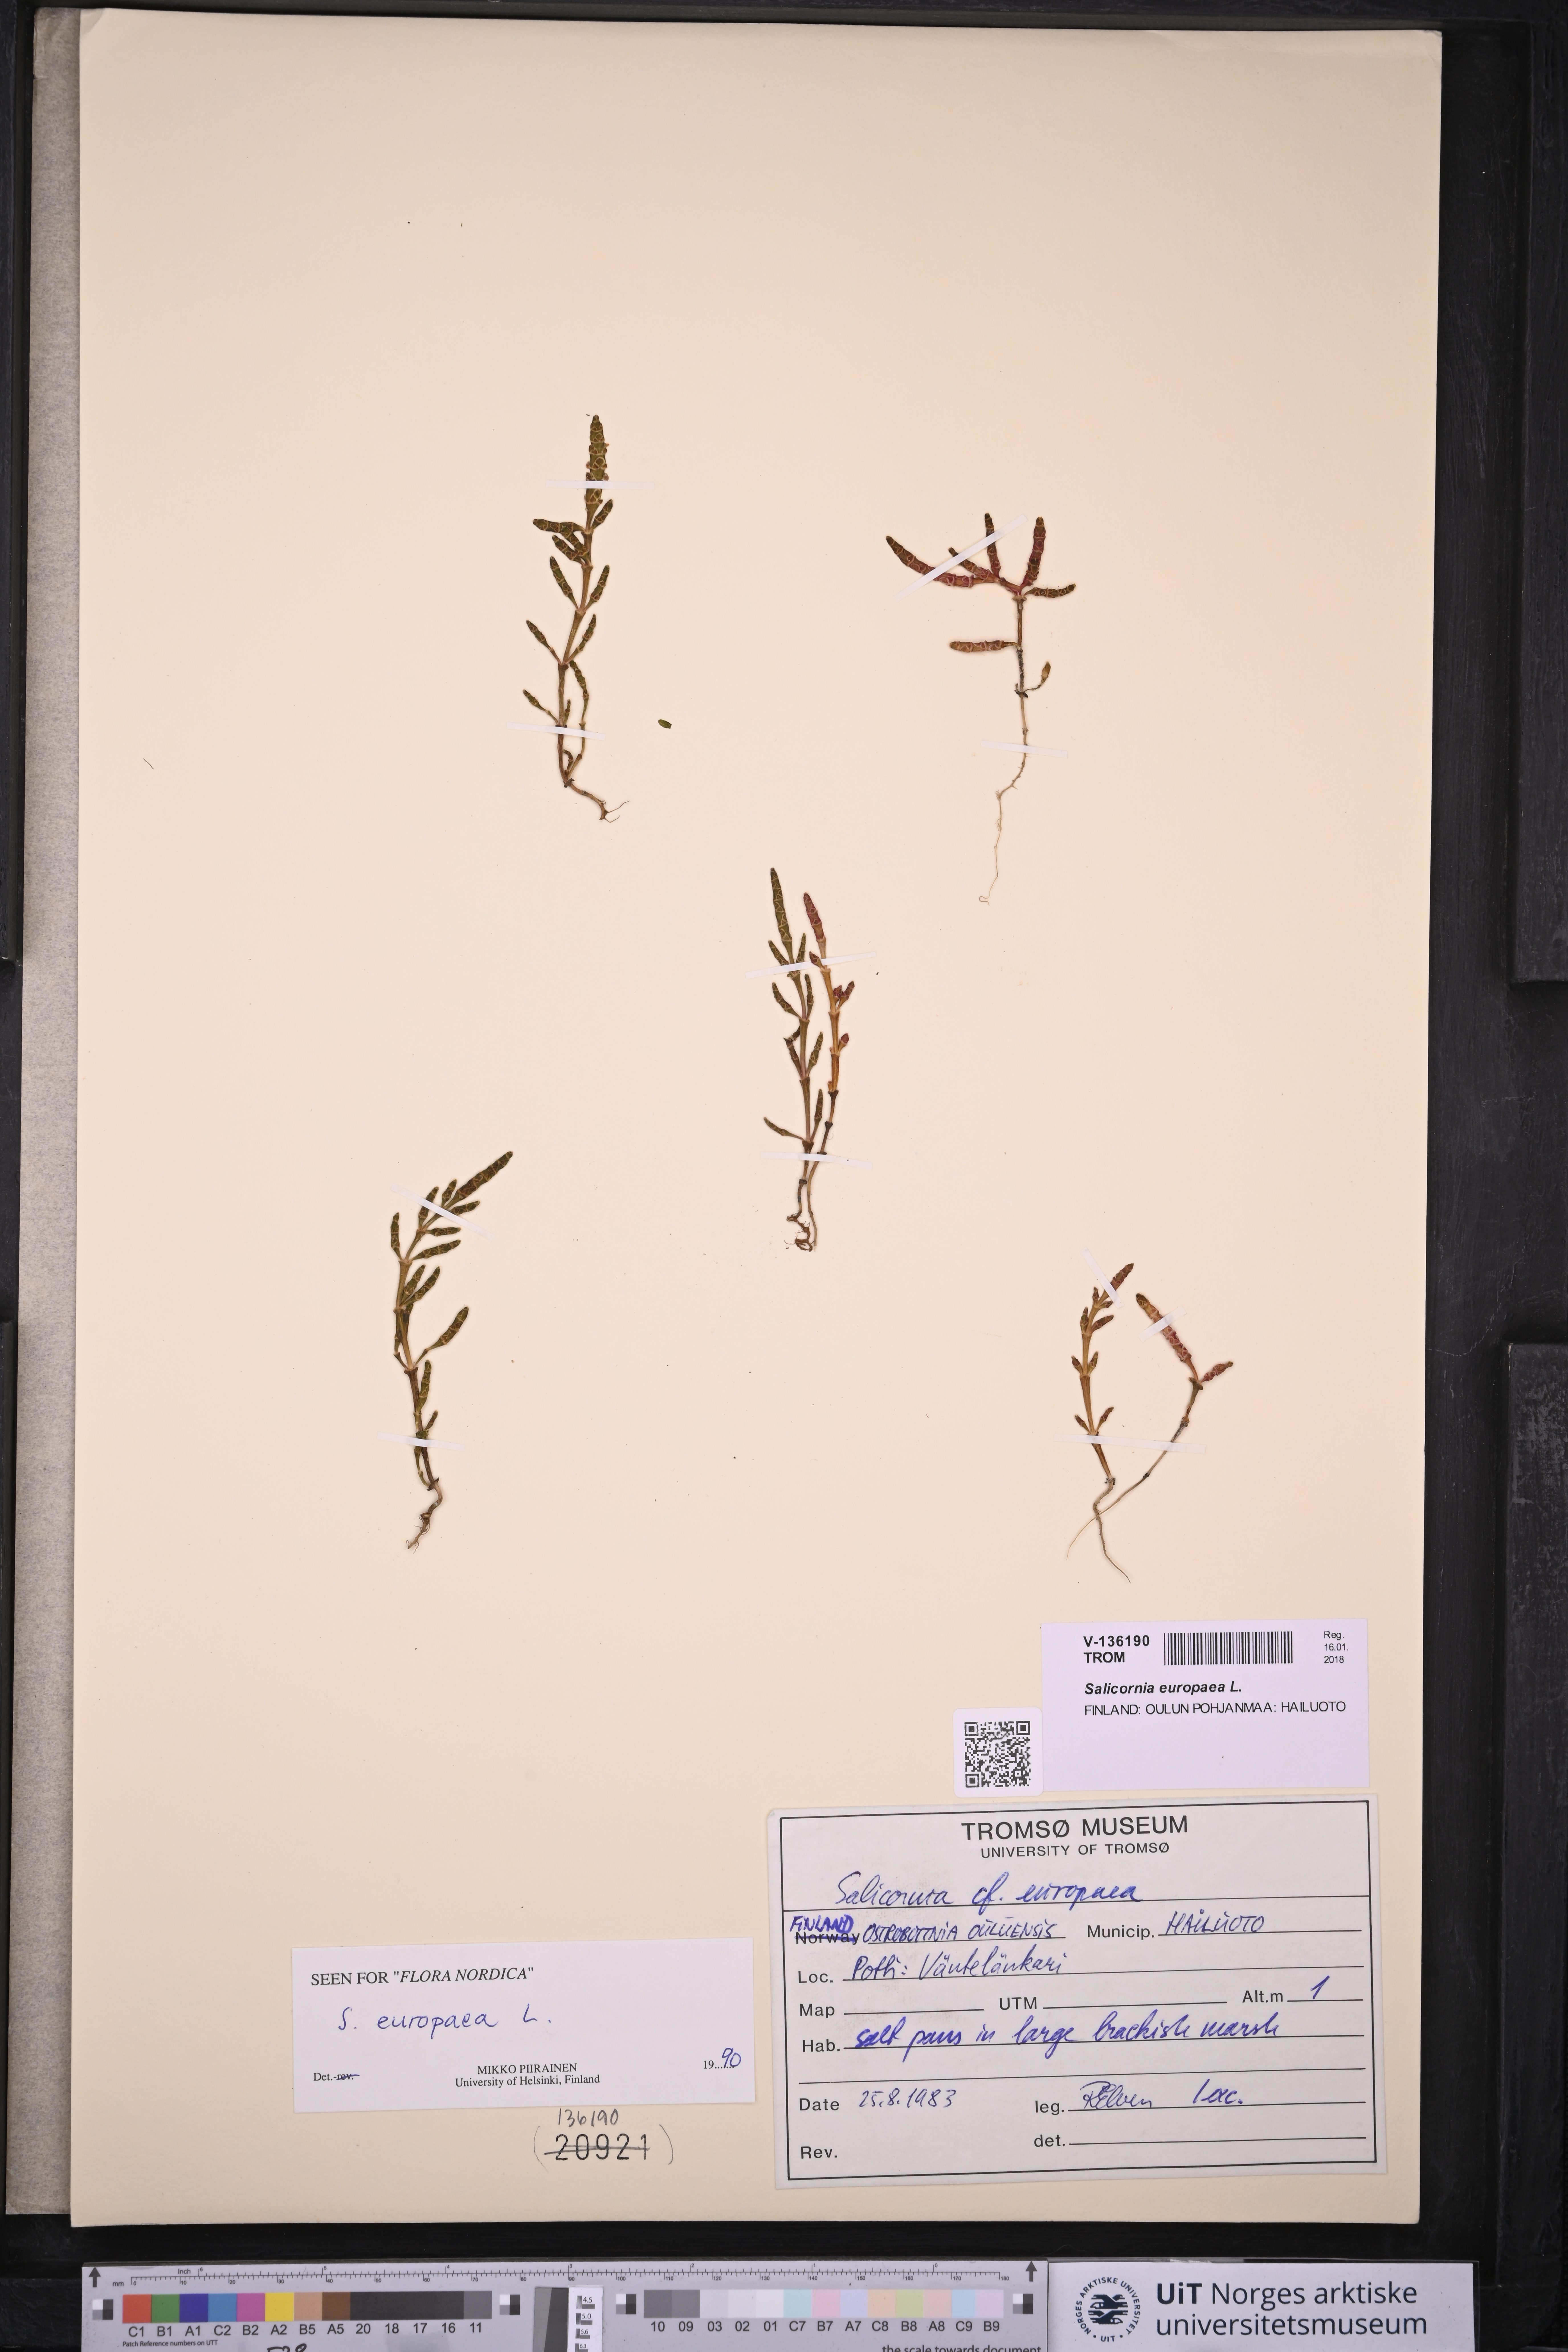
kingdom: Plantae
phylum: Tracheophyta
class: Magnoliopsida
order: Caryophyllales
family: Amaranthaceae
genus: Salicornia
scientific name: Salicornia europaea
